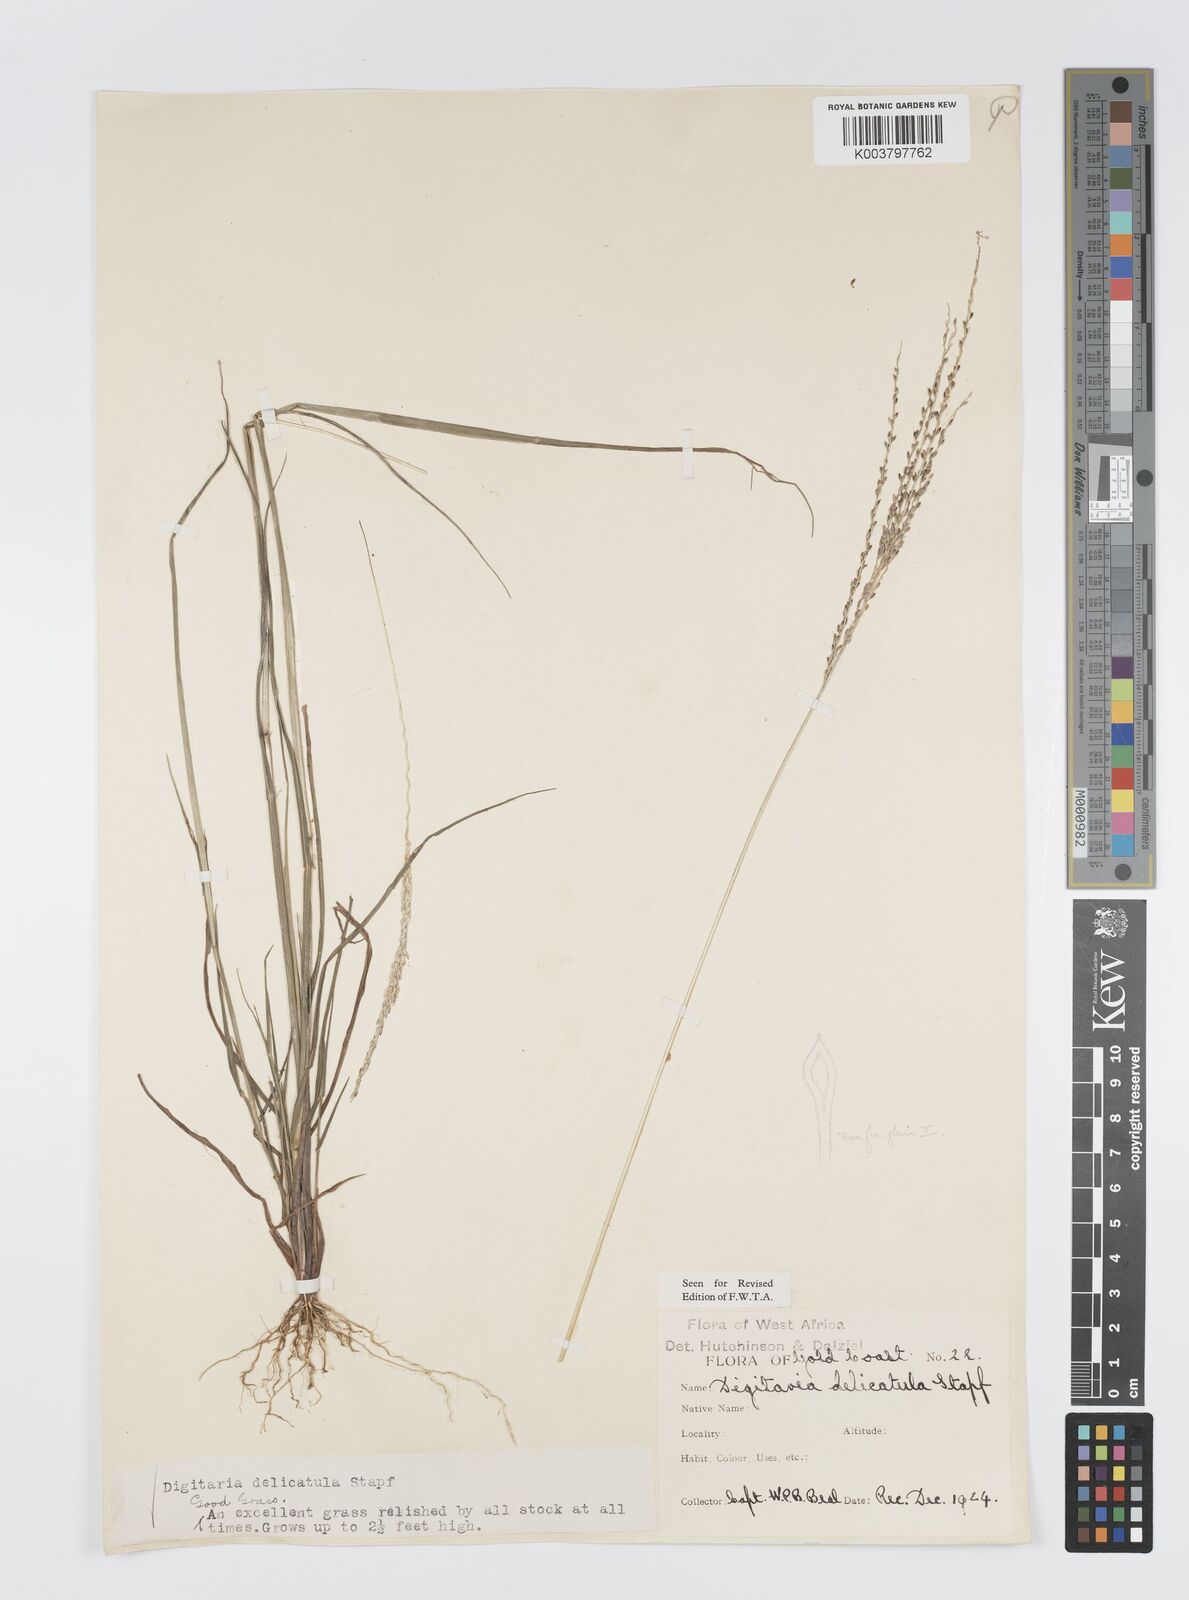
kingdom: Plantae
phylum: Tracheophyta
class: Liliopsida
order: Poales
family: Poaceae
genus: Digitaria
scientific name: Digitaria delicatula
